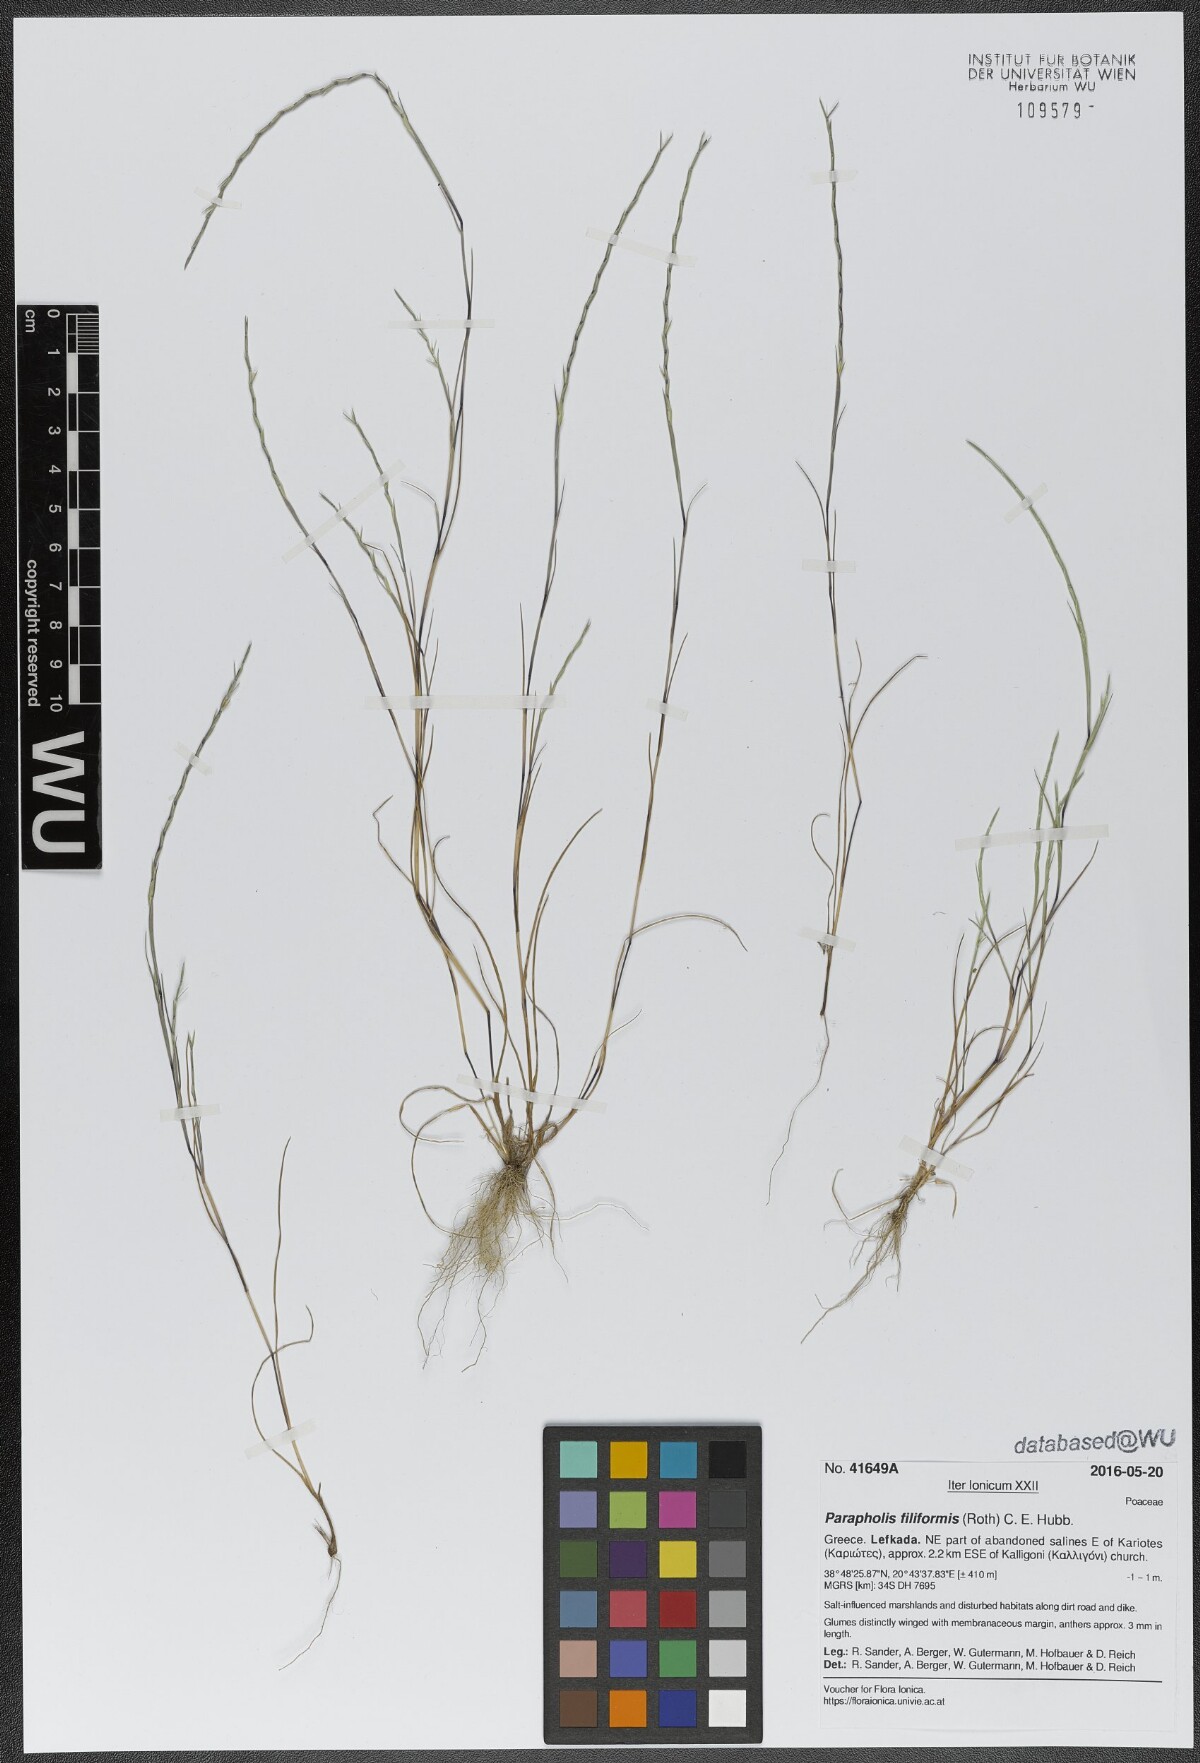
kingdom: Plantae
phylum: Tracheophyta
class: Liliopsida
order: Poales
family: Poaceae
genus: Parapholis
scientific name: Parapholis filiformis
